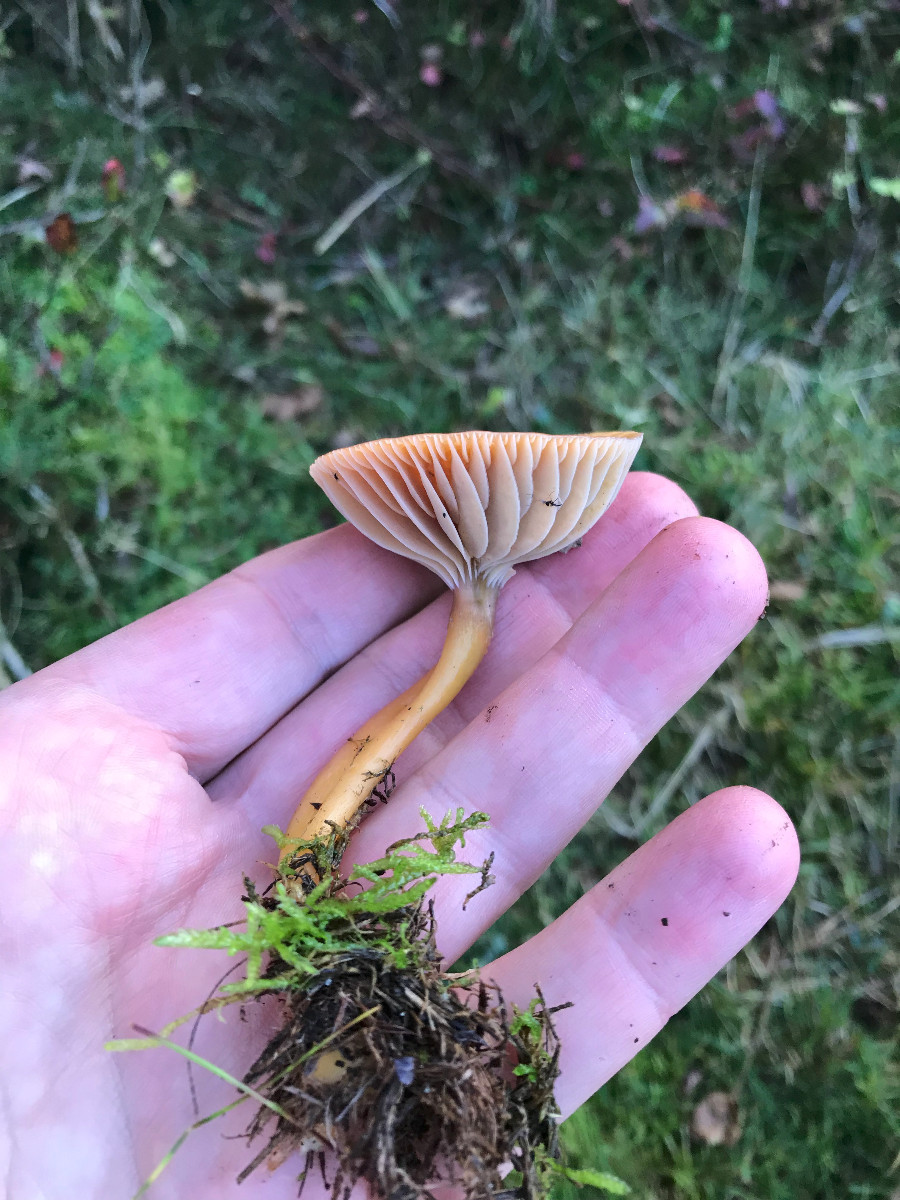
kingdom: Fungi
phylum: Basidiomycota
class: Agaricomycetes
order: Agaricales
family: Hygrophoraceae
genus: Gliophorus
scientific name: Gliophorus laetus
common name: brusk-vokshat
